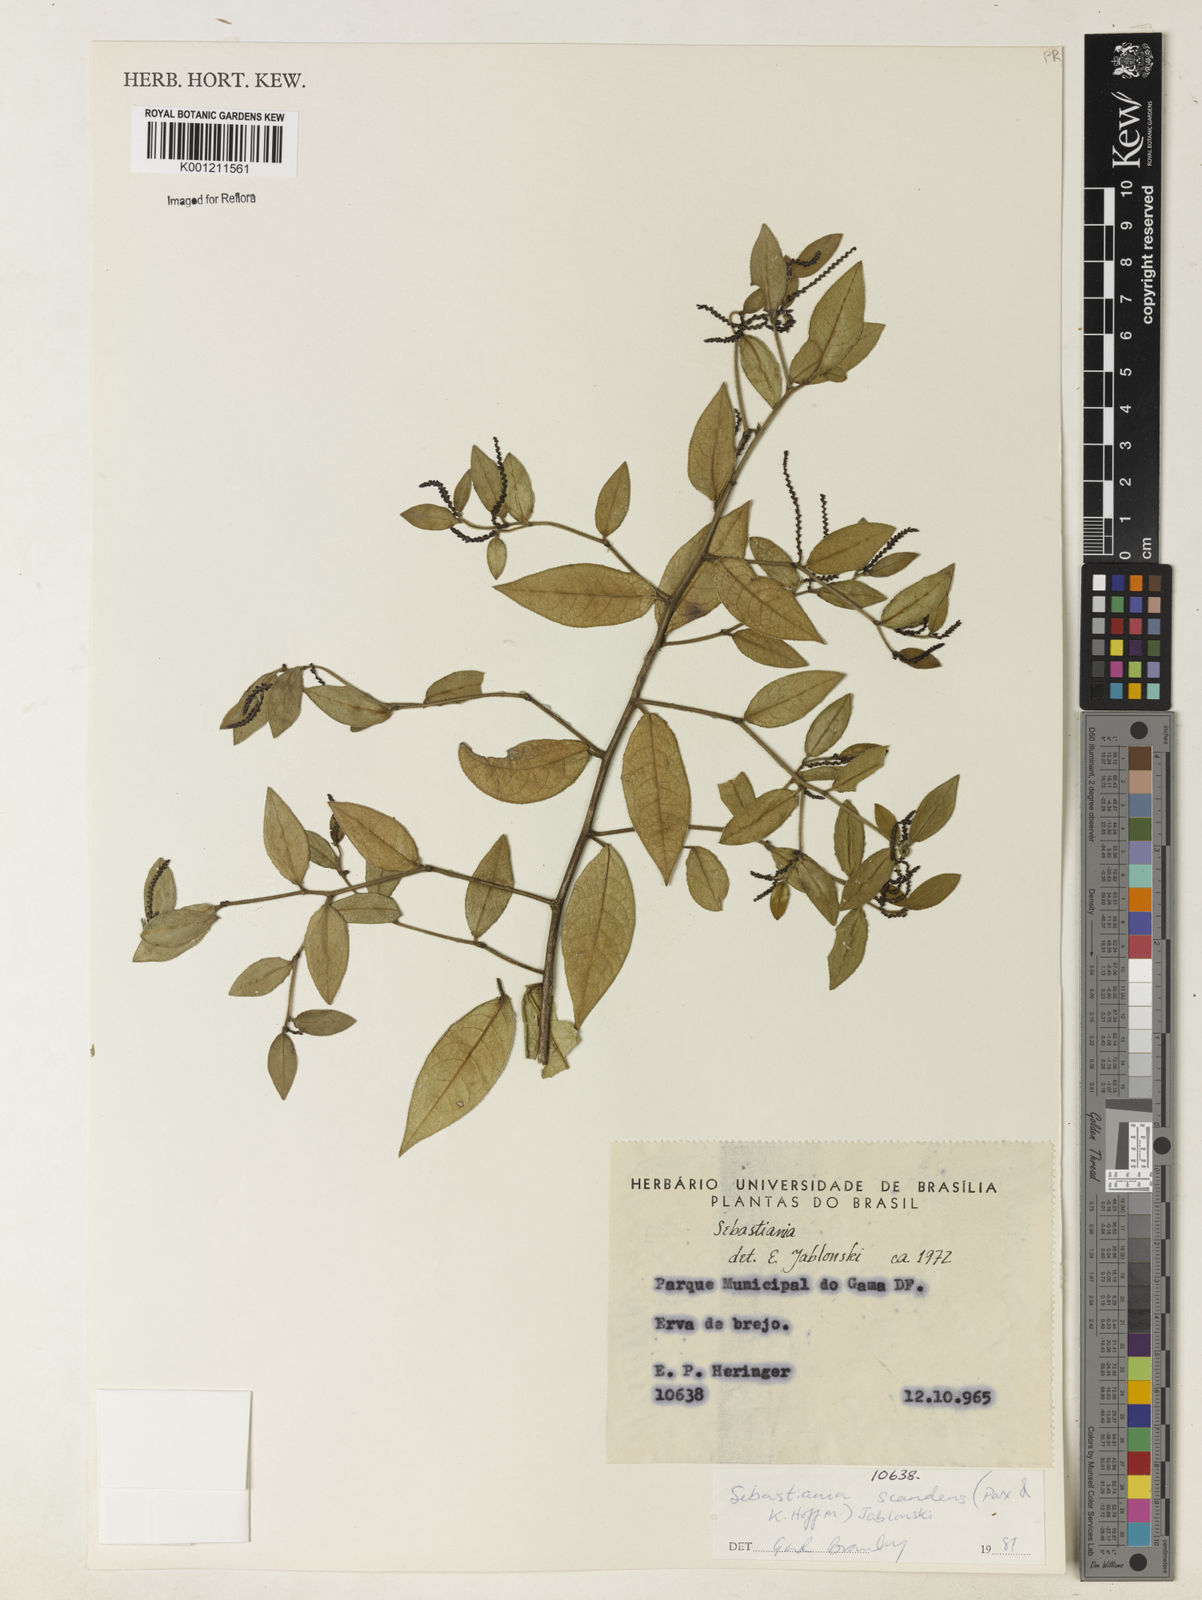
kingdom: Plantae
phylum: Tracheophyta
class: Magnoliopsida
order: Malpighiales
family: Euphorbiaceae
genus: Microstachys
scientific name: Microstachys hispida
